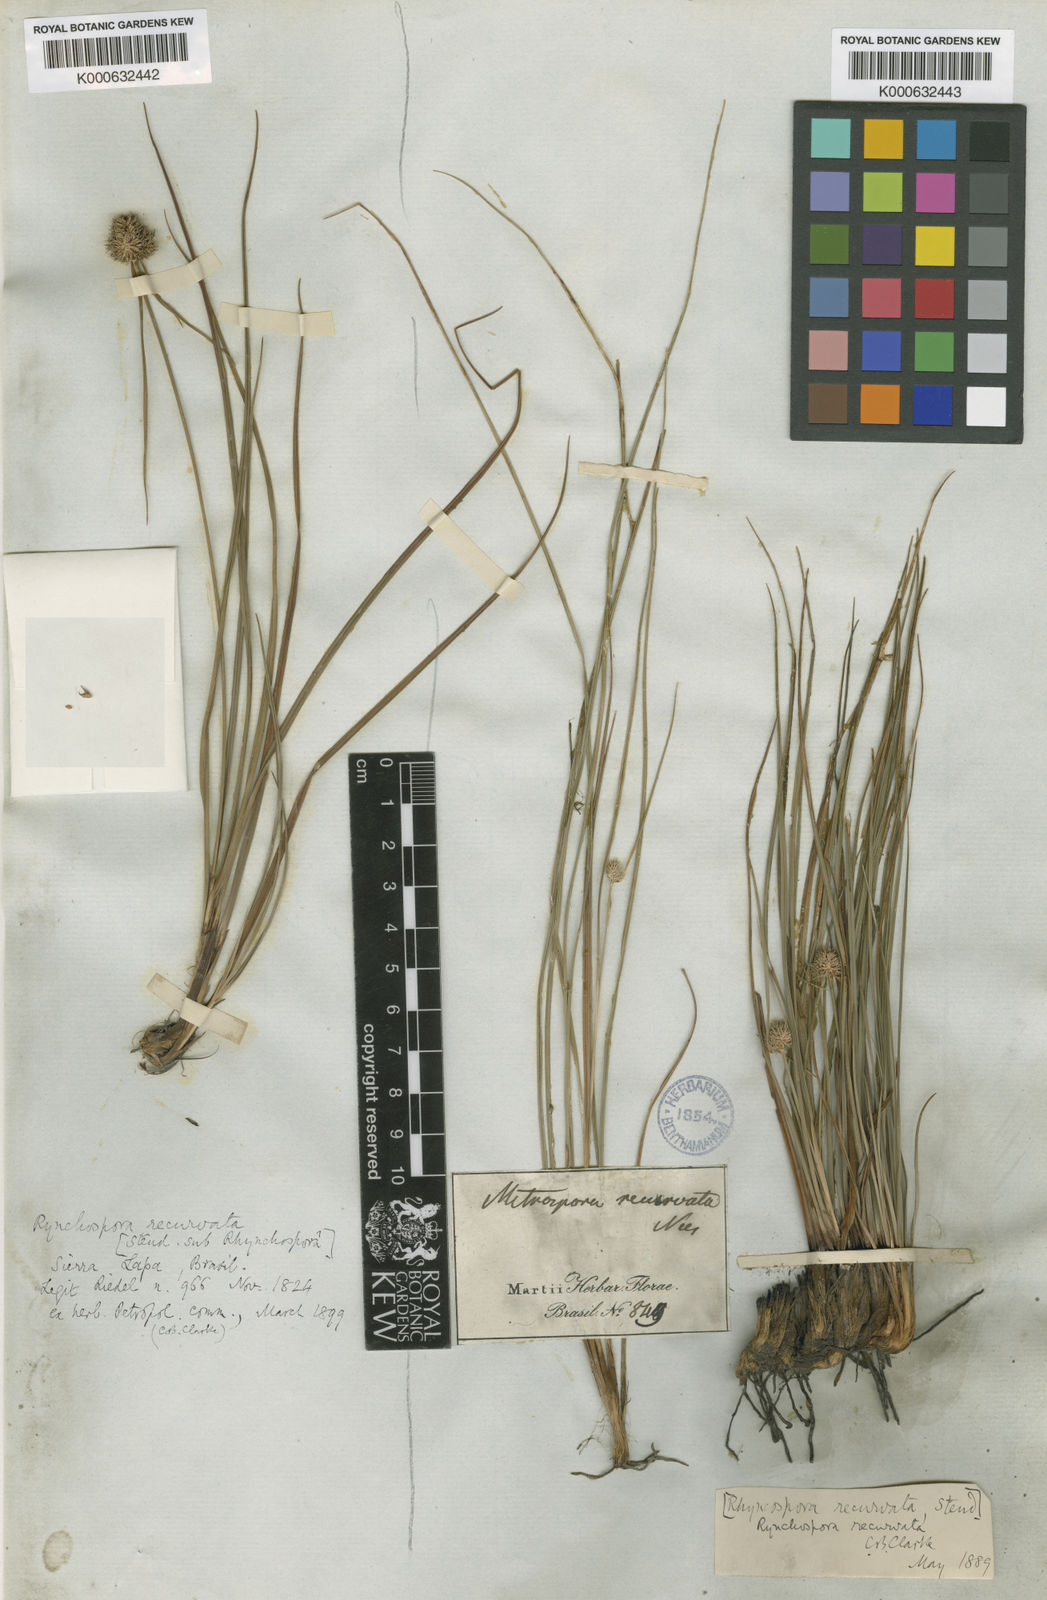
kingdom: Plantae
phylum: Tracheophyta
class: Liliopsida
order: Poales
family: Cyperaceae
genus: Rhynchospora
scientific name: Rhynchospora recurvata
